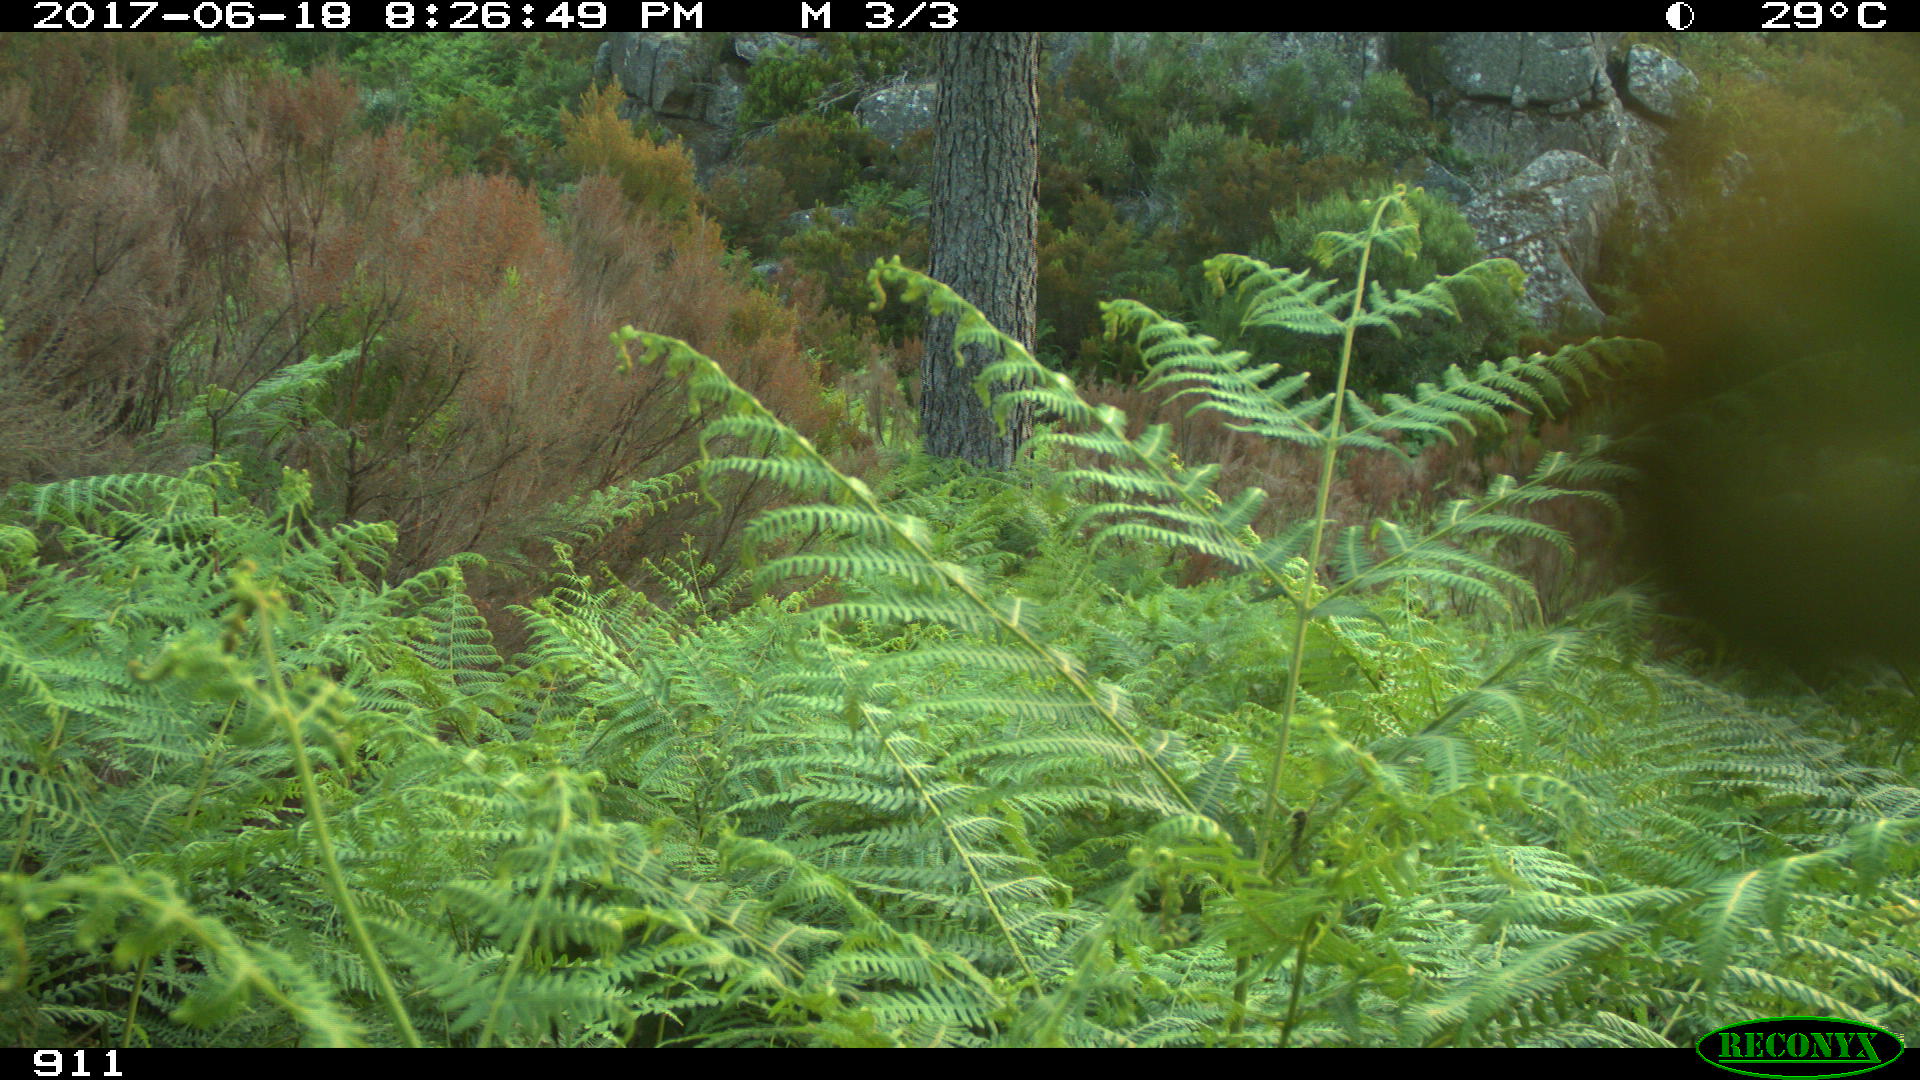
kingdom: Animalia
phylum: Chordata
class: Mammalia
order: Perissodactyla
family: Equidae
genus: Equus
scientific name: Equus caballus
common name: Horse
